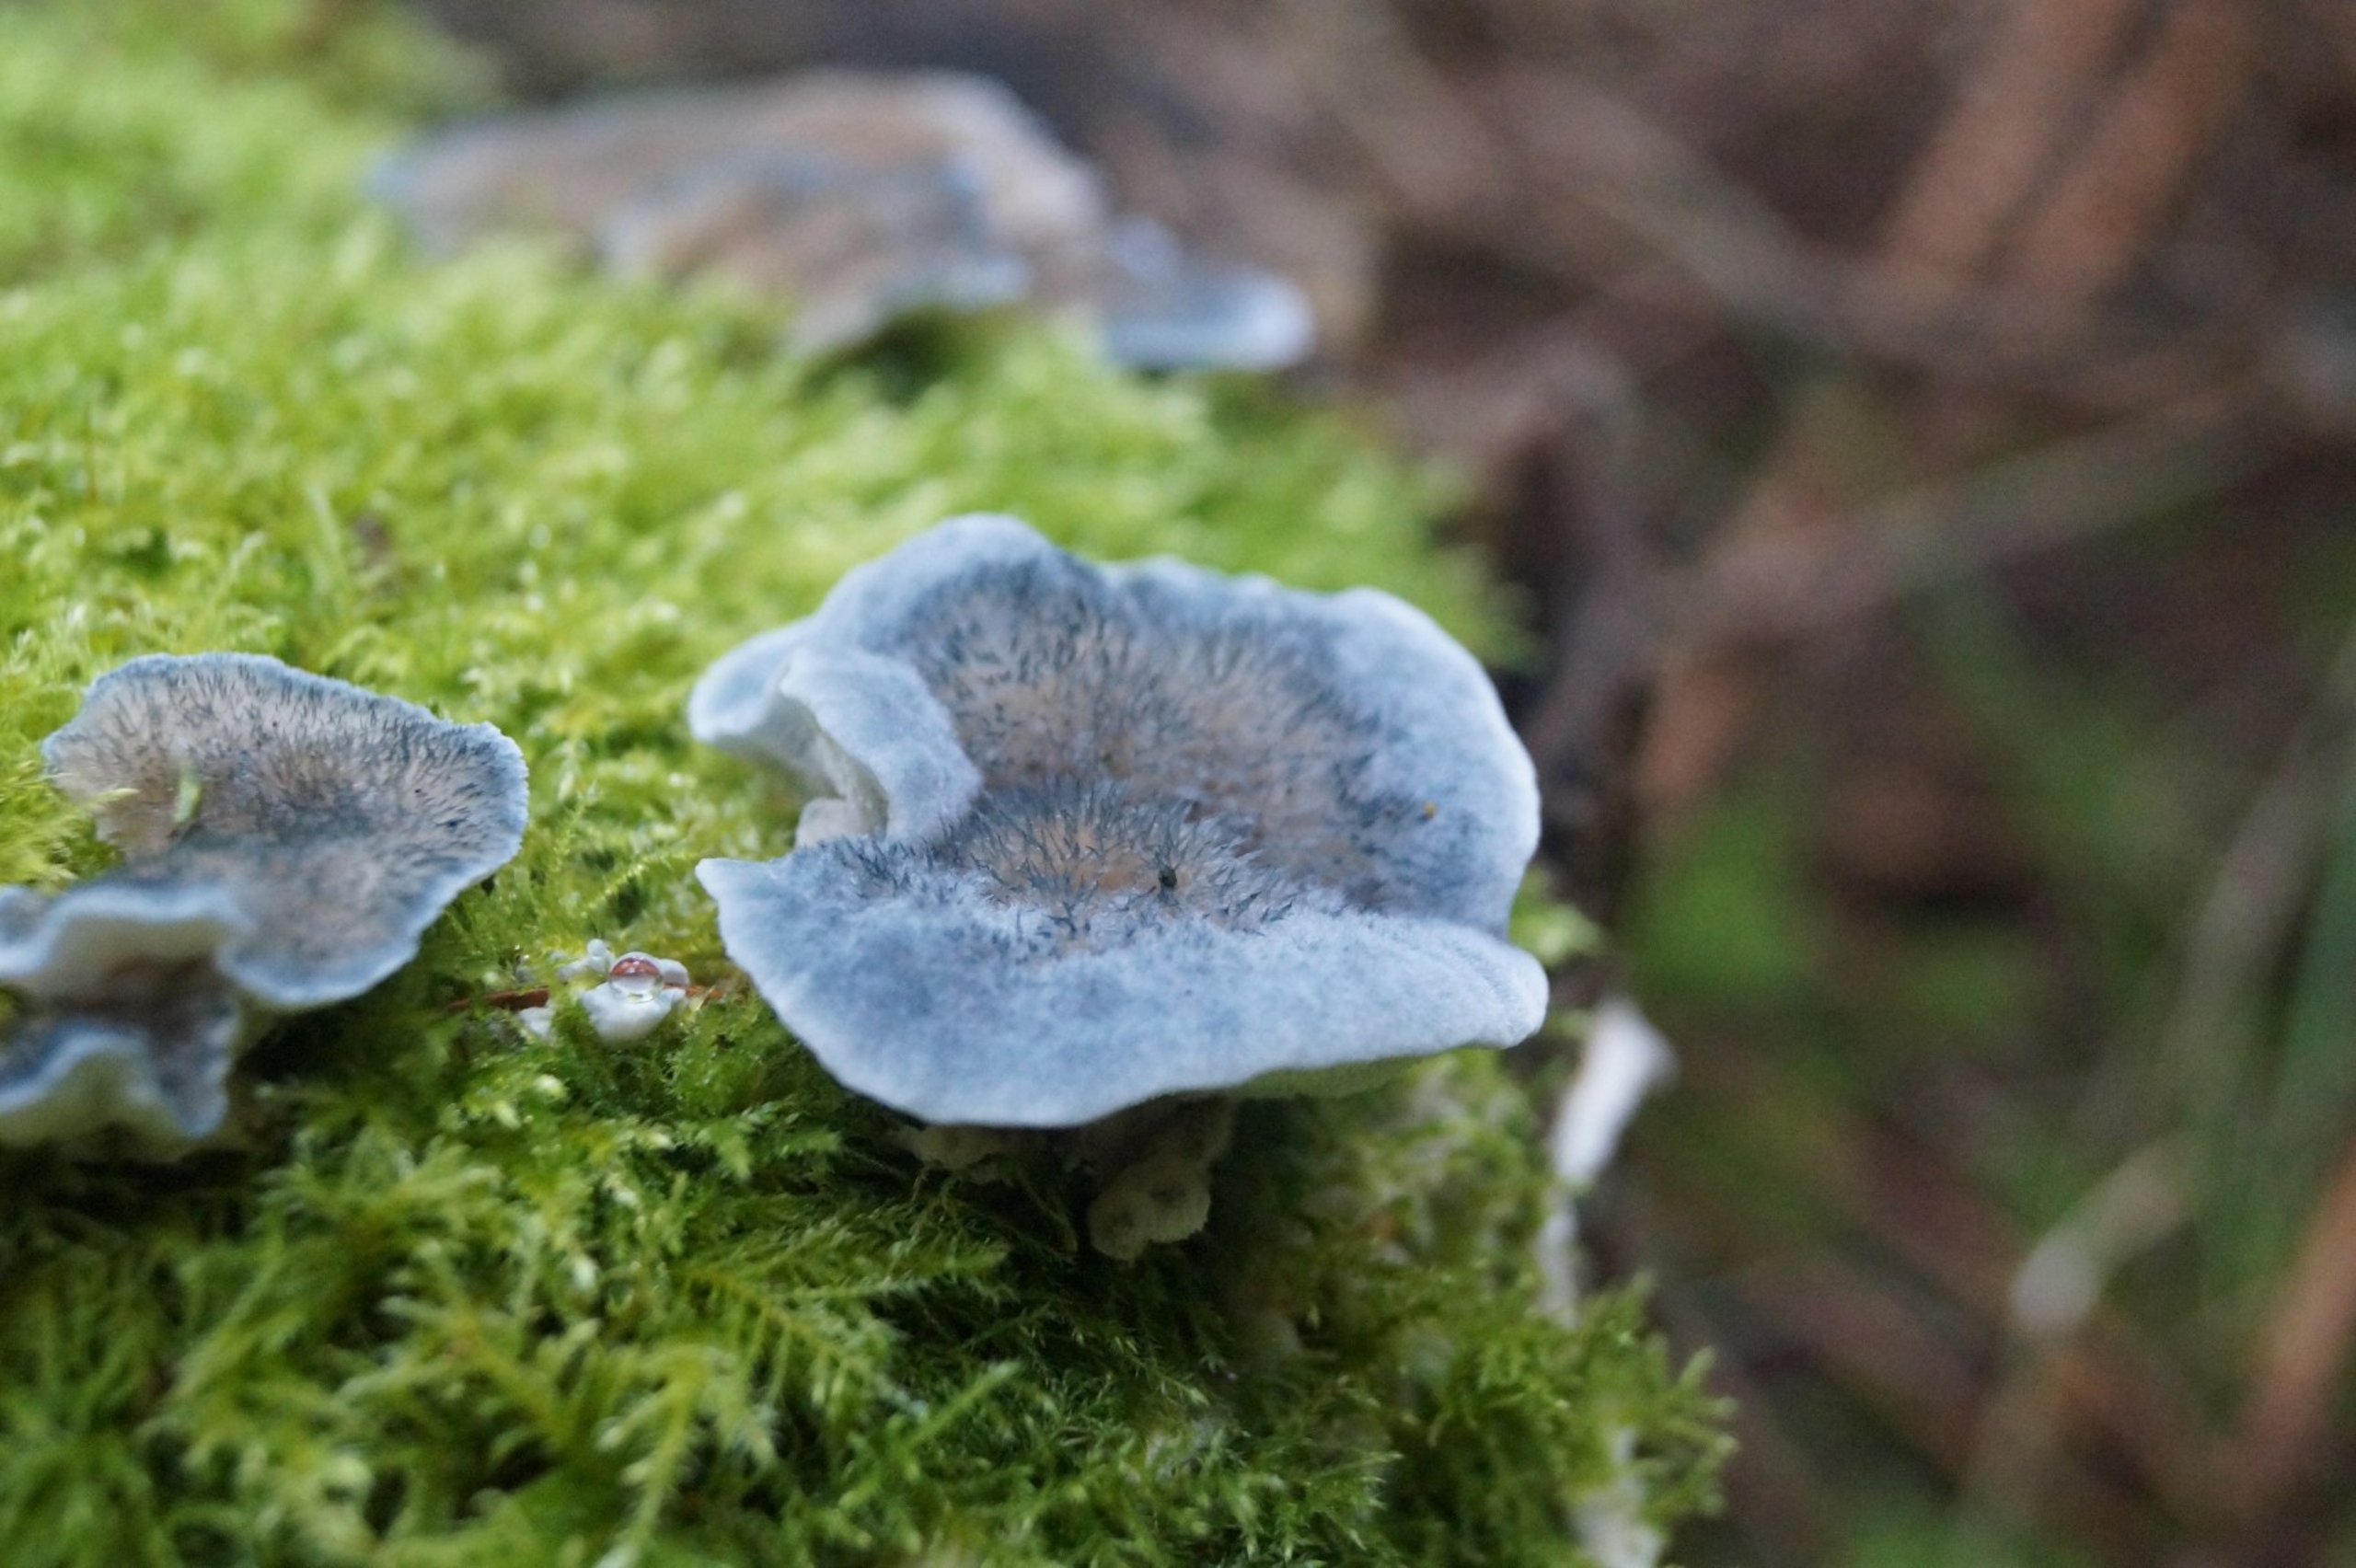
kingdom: Fungi
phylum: Basidiomycota
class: Agaricomycetes
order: Polyporales
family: Polyporaceae
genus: Cyanosporus
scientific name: Cyanosporus caesius
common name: Blålig kødporesvamp
